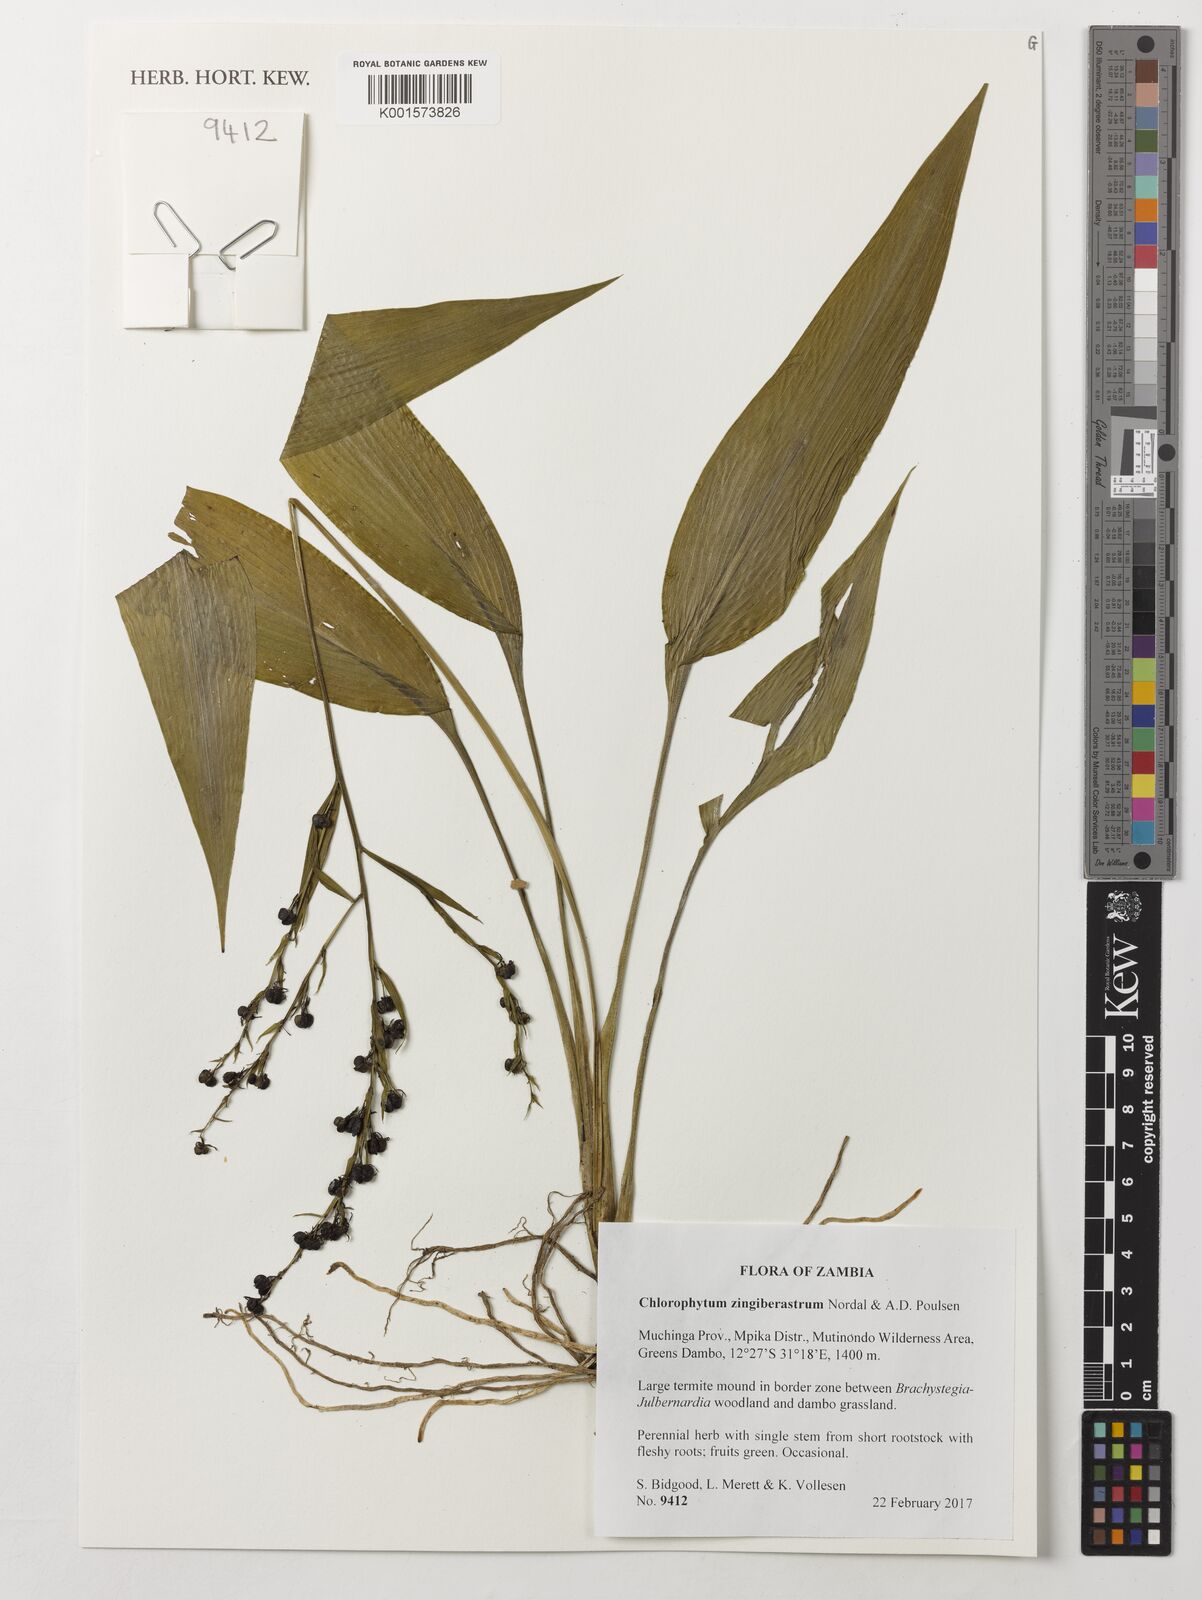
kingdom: Plantae
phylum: Tracheophyta
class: Liliopsida
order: Asparagales
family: Asparagaceae
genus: Chlorophytum
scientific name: Chlorophytum zingiberastrum
